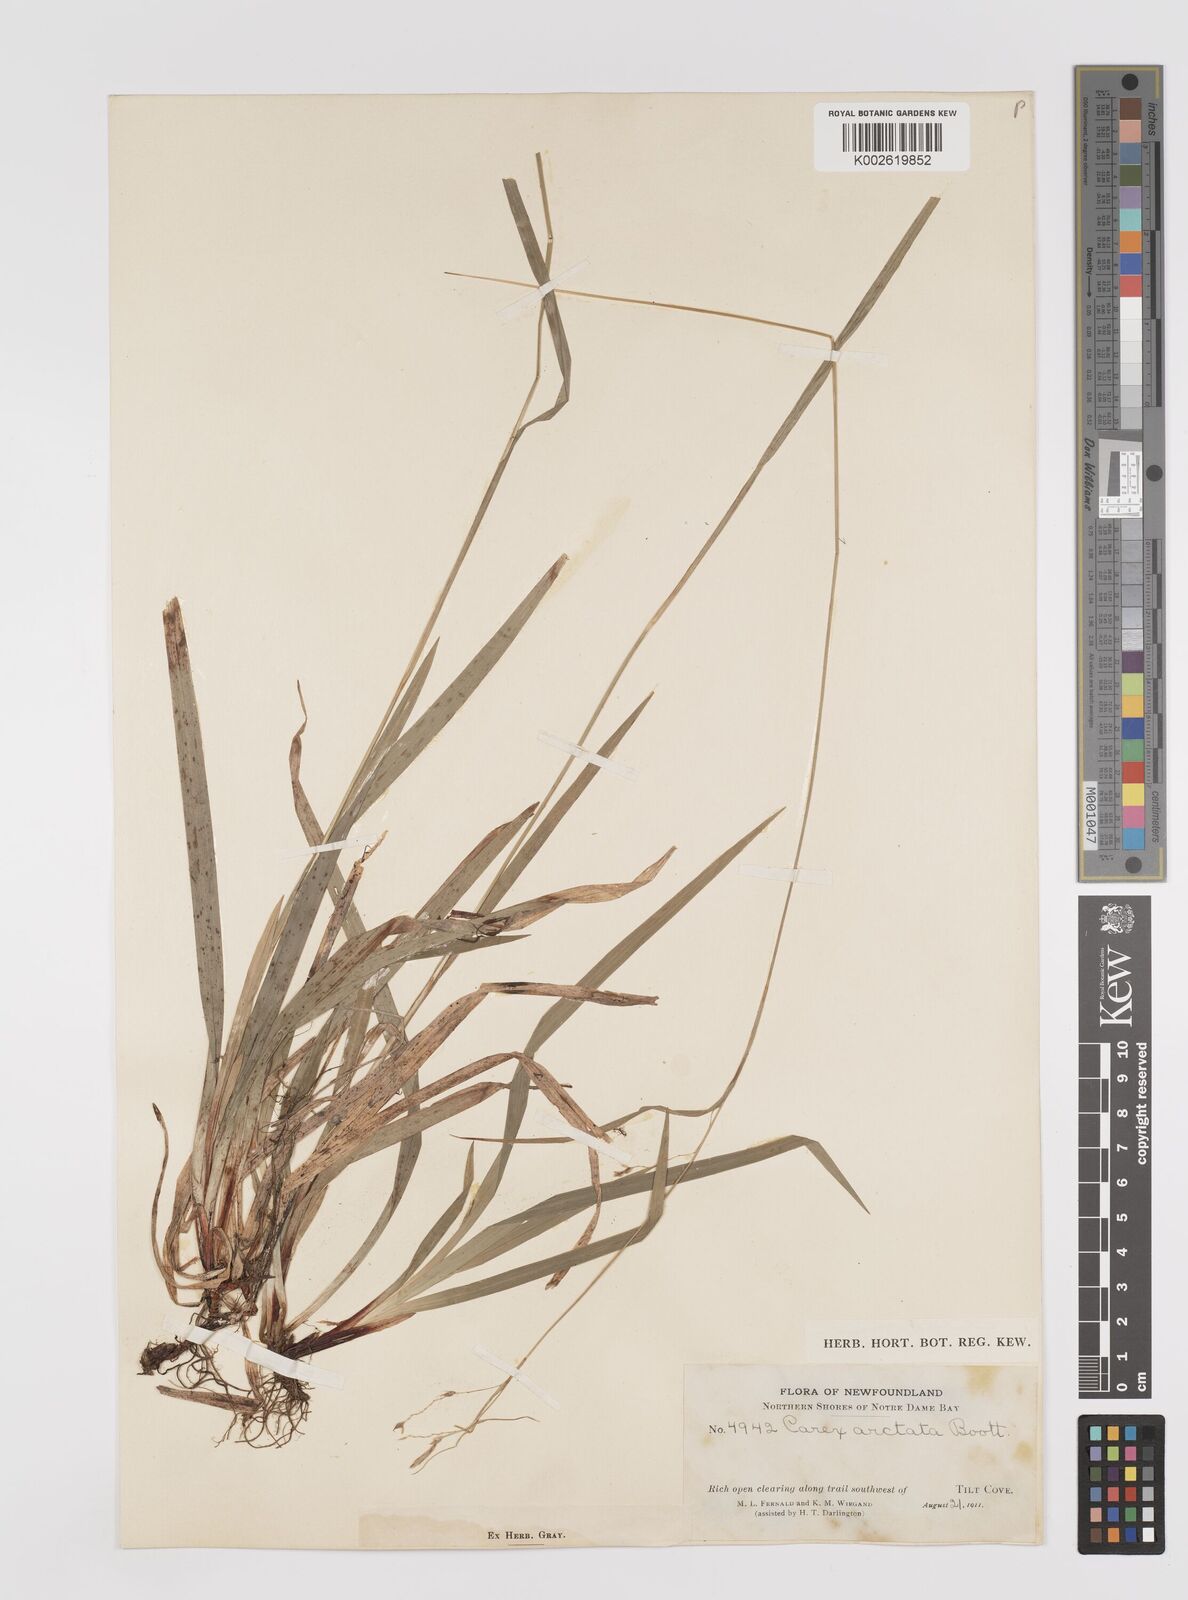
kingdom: Plantae
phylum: Tracheophyta
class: Liliopsida
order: Poales
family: Cyperaceae
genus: Carex
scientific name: Carex arctata
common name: Black sedge
